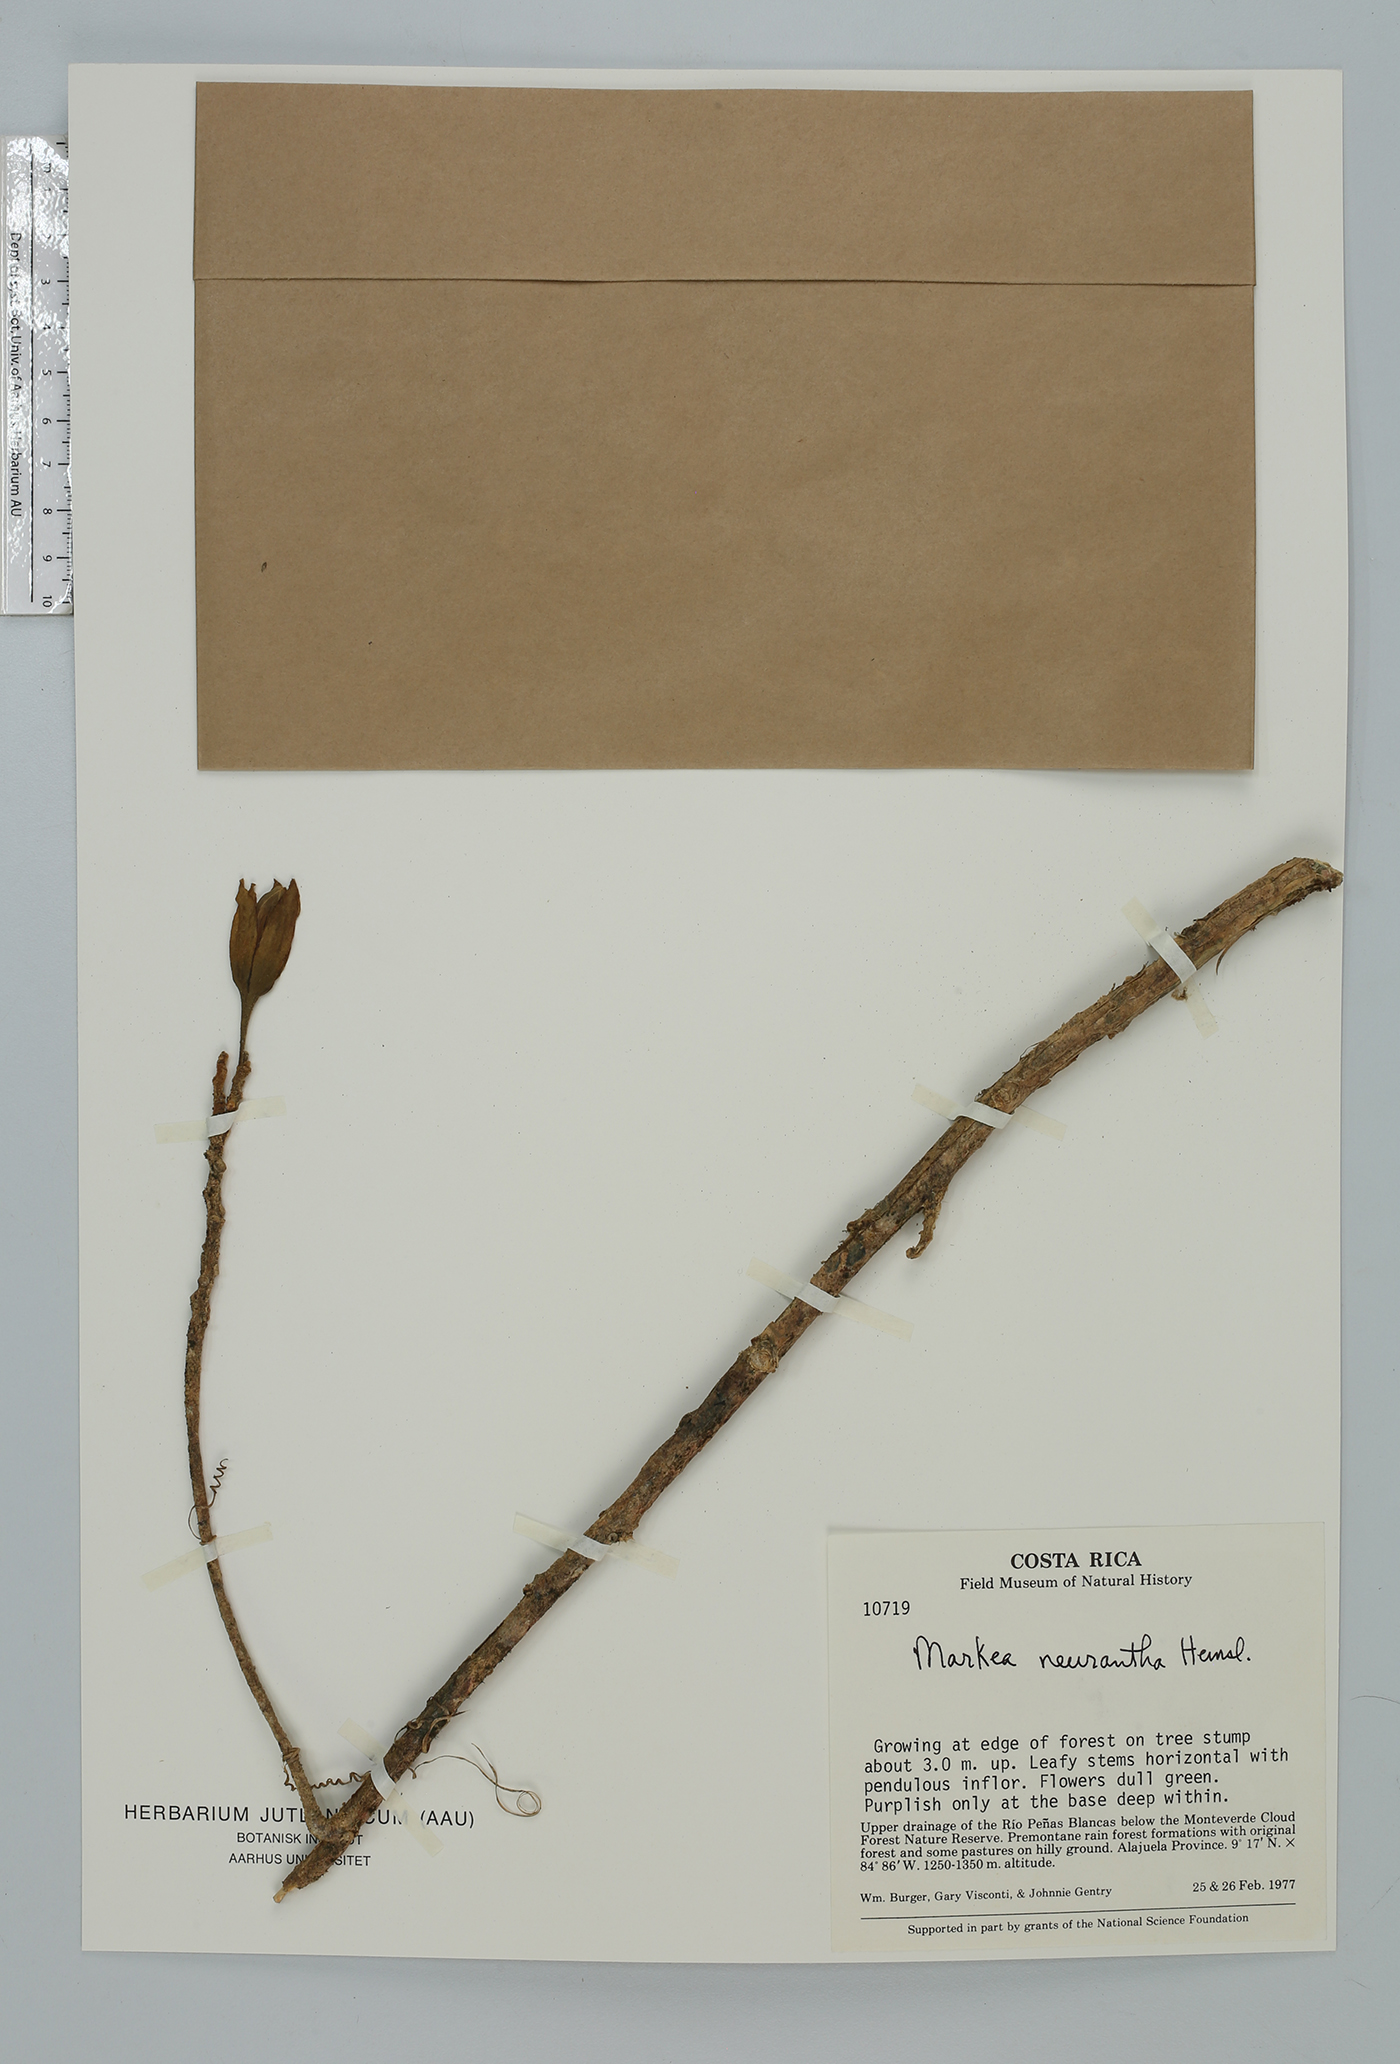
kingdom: Plantae
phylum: Tracheophyta
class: Magnoliopsida
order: Solanales
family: Solanaceae
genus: Merinthopodium
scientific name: Merinthopodium neuranthum
